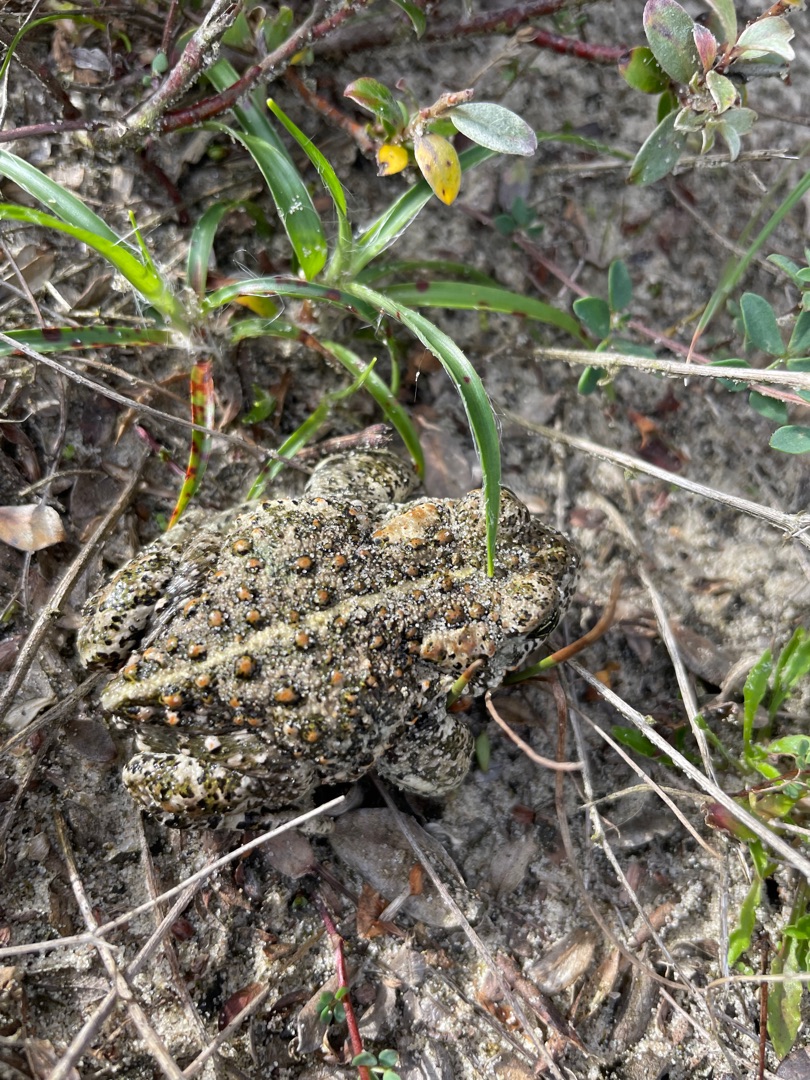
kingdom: Animalia
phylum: Chordata
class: Amphibia
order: Anura
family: Bufonidae
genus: Epidalea
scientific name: Epidalea calamita
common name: Strandtudse
